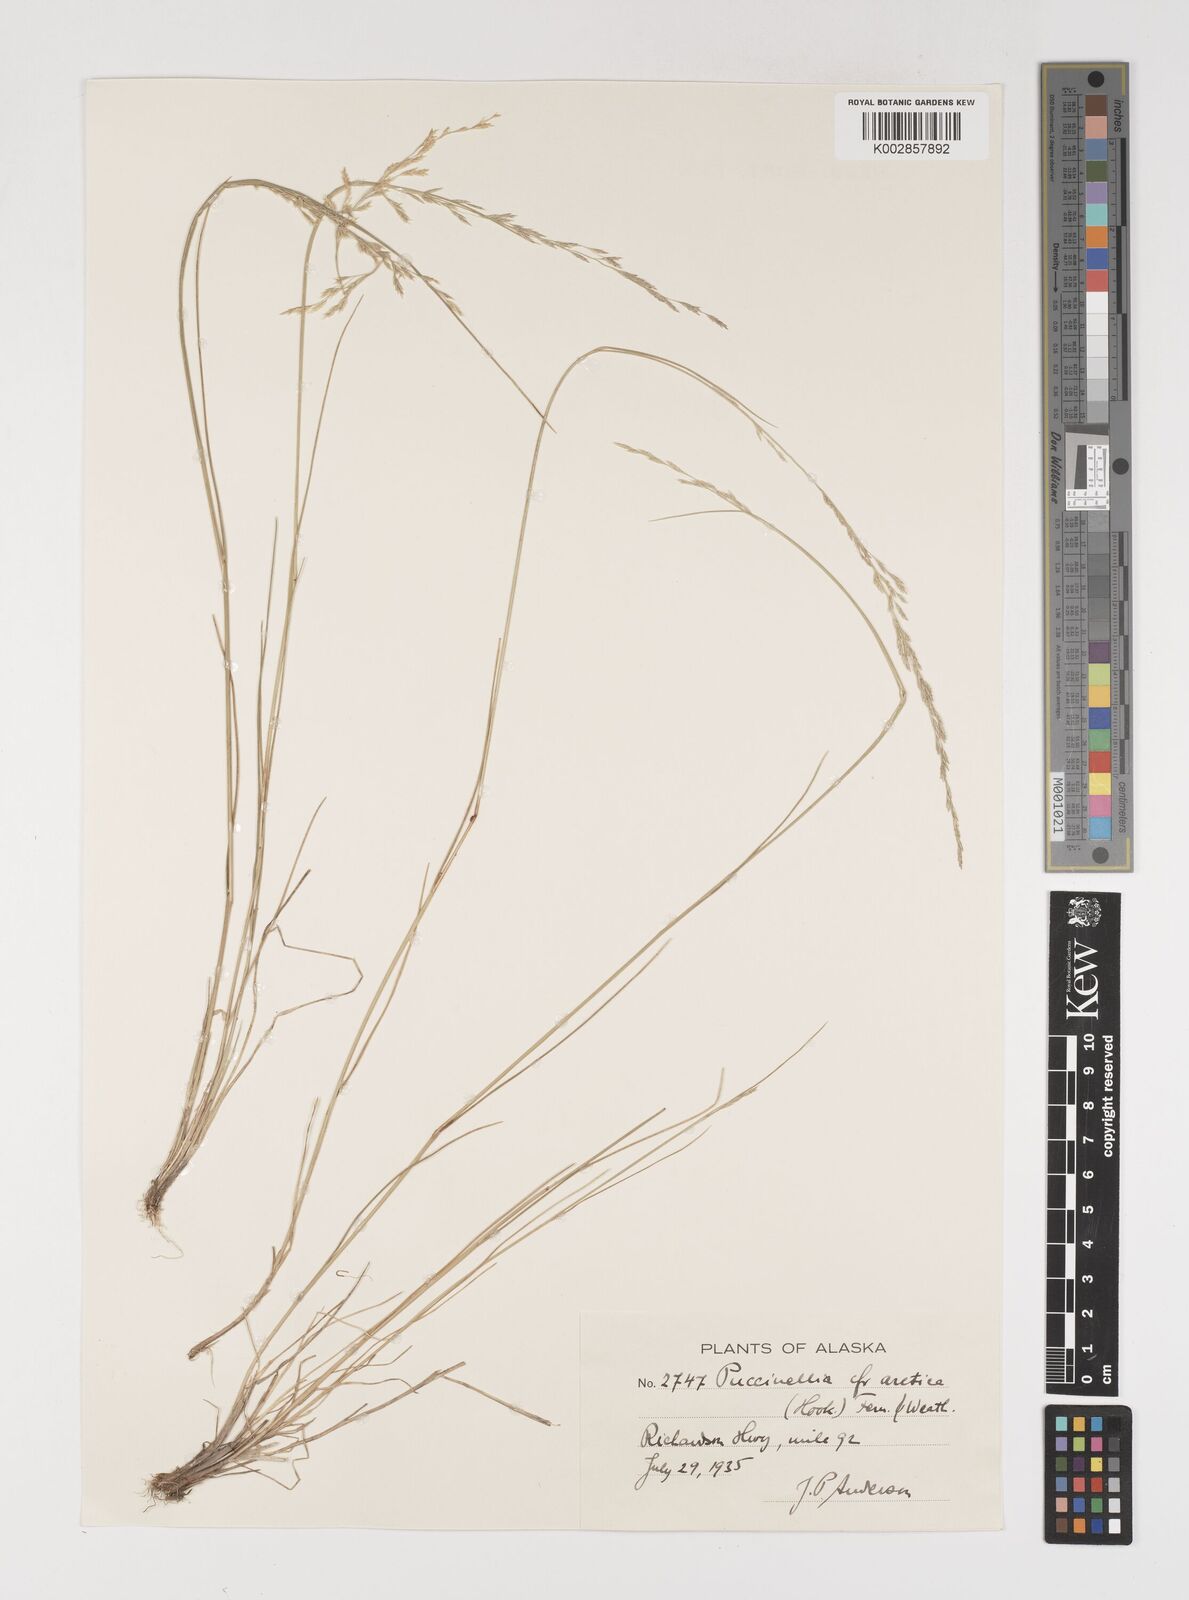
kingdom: Plantae
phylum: Tracheophyta
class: Liliopsida
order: Poales
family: Poaceae
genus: Puccinellia
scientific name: Puccinellia
